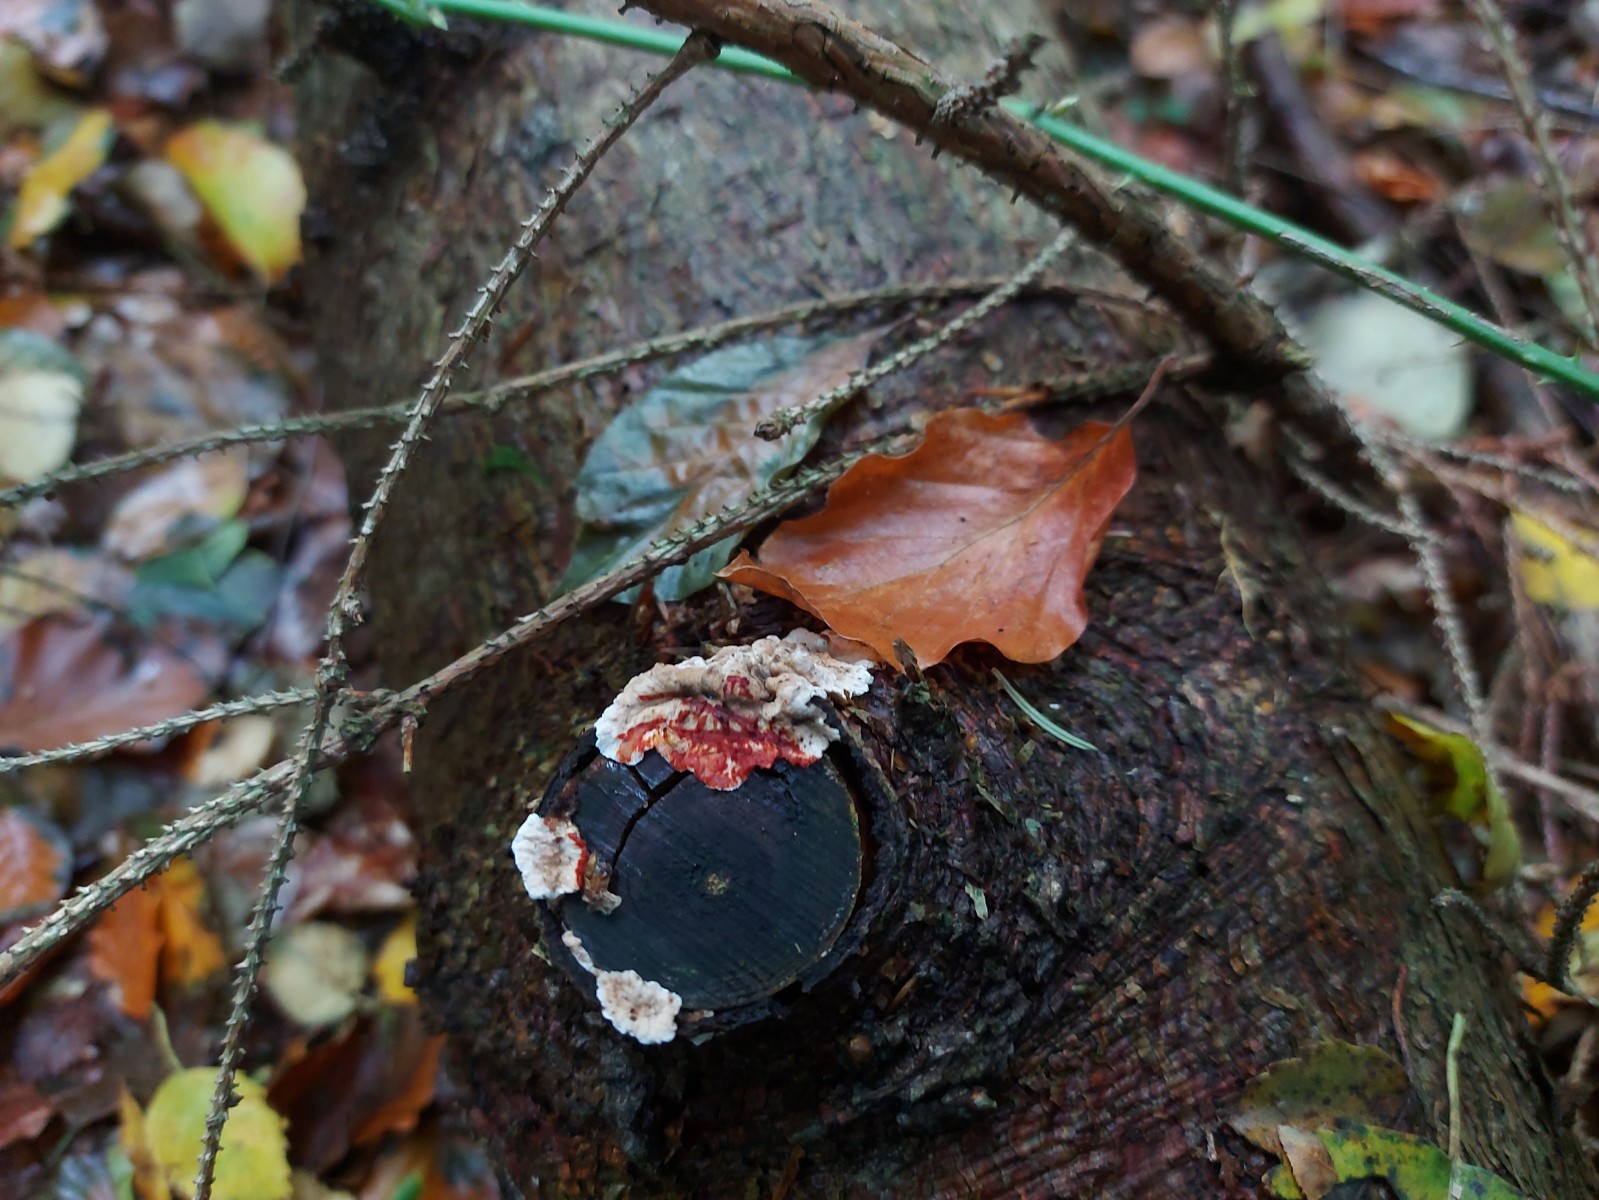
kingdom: Fungi
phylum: Basidiomycota
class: Agaricomycetes
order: Russulales
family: Stereaceae
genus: Stereum
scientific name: Stereum sanguinolentum
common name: blødende lædersvamp
